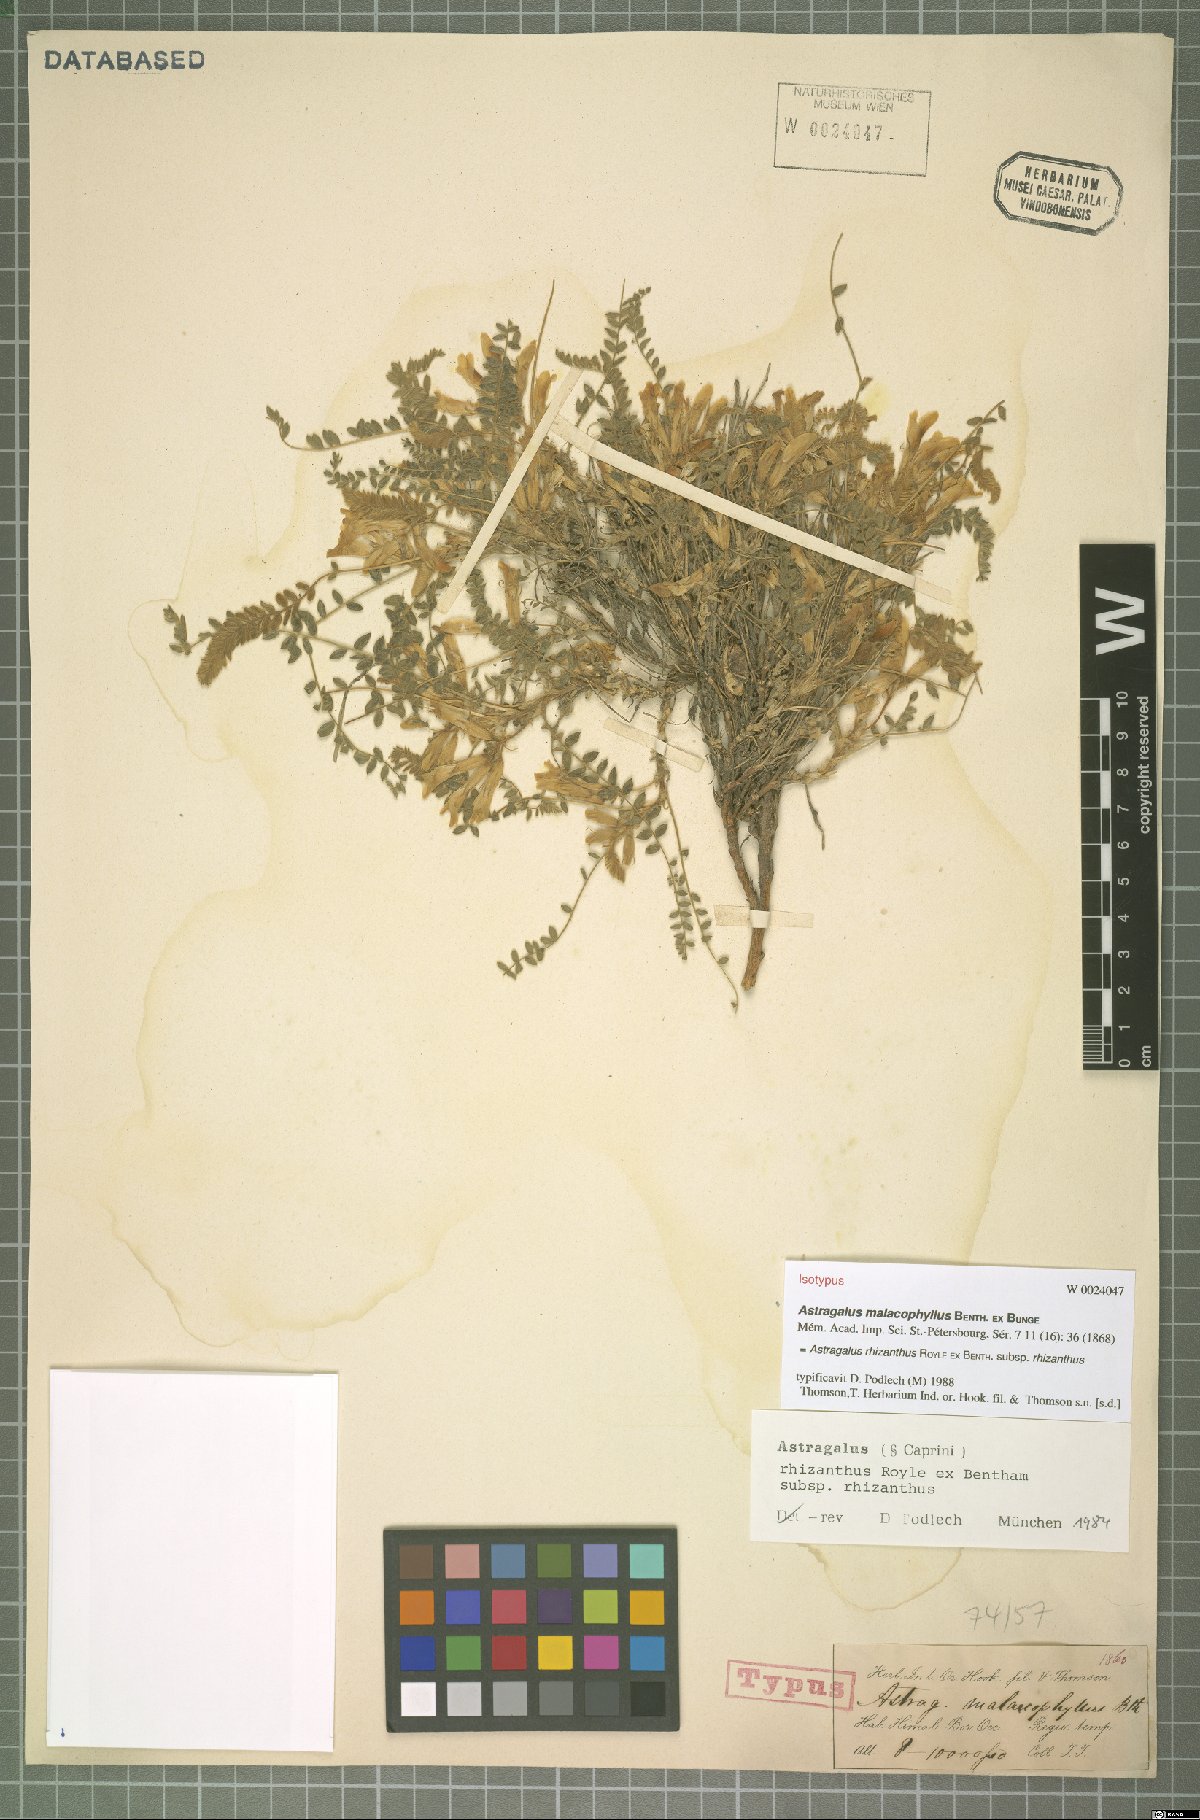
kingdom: Plantae
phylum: Tracheophyta
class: Magnoliopsida
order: Fabales
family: Fabaceae
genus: Astragalus
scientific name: Astragalus rhizanthus
